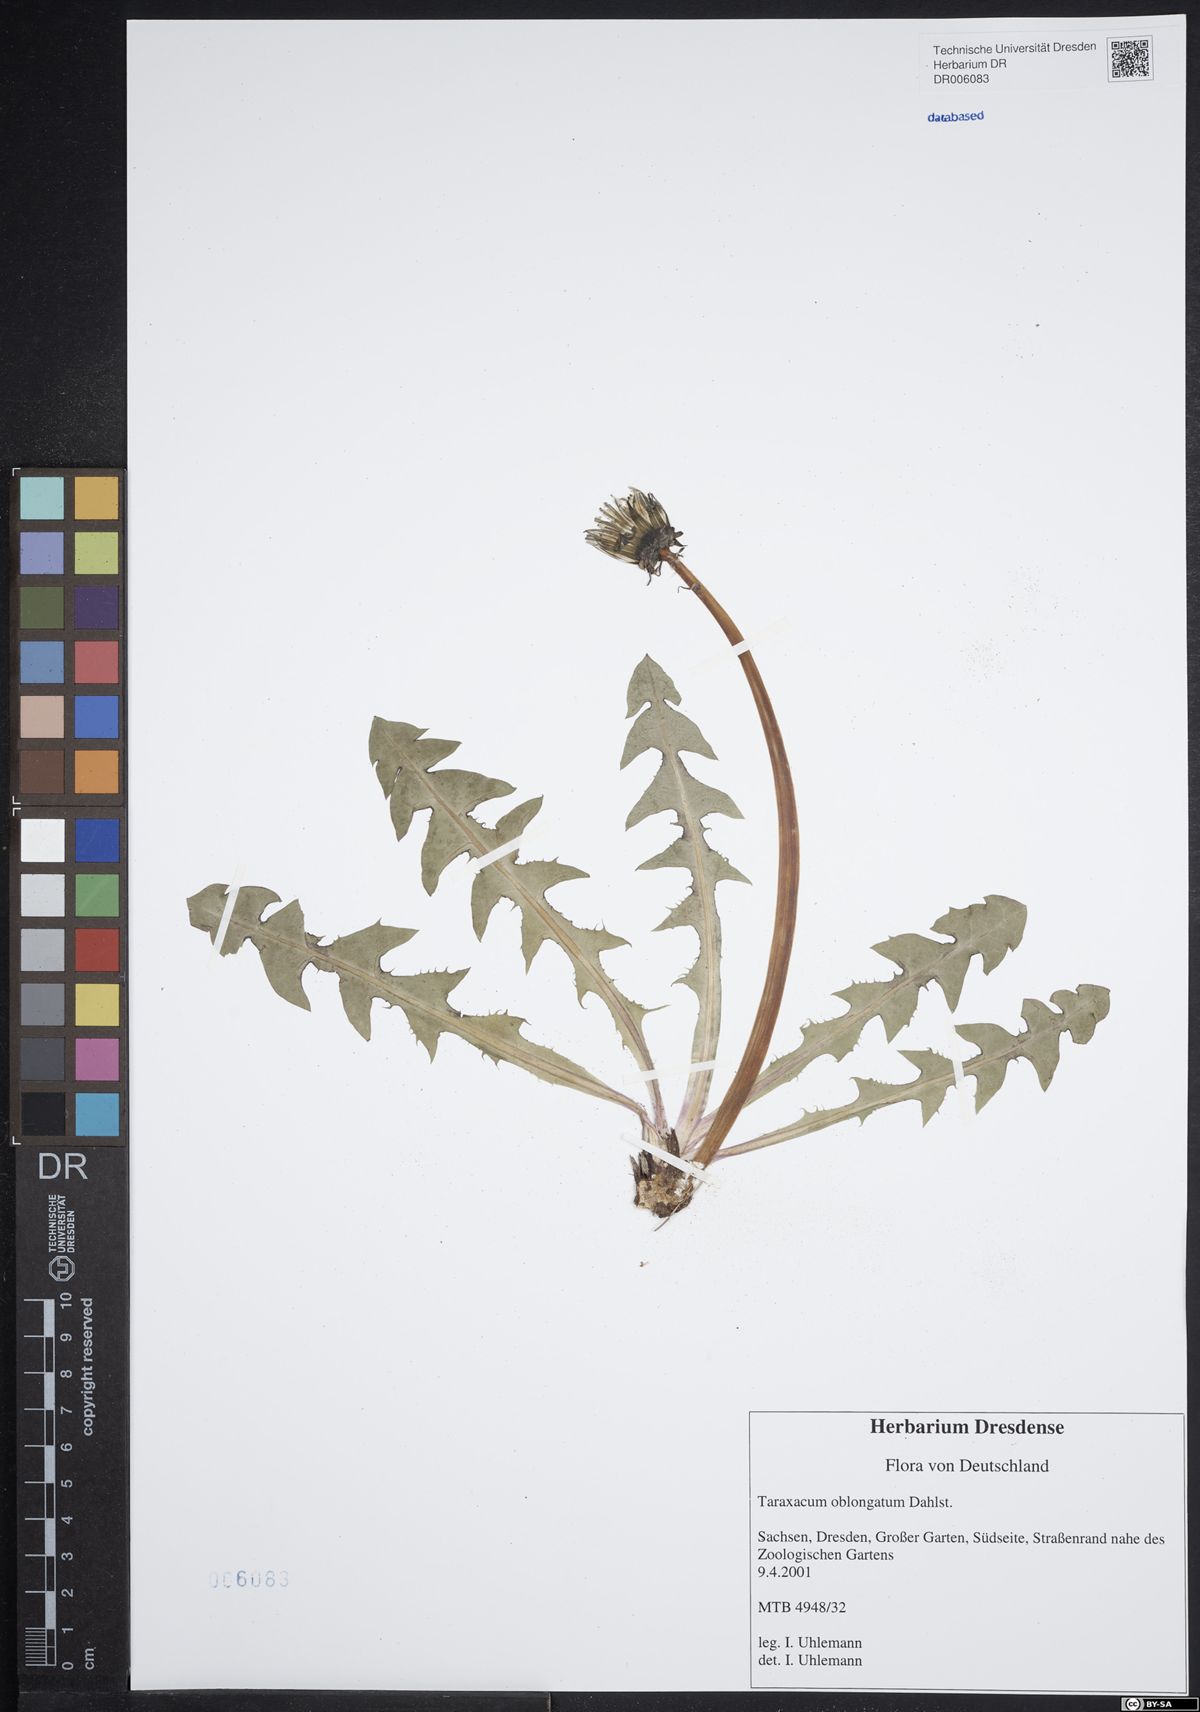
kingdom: Plantae
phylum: Tracheophyta
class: Magnoliopsida
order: Asterales
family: Asteraceae
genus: Taraxacum
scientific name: Taraxacum oblongatum
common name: Oblong-leaved dandelion
